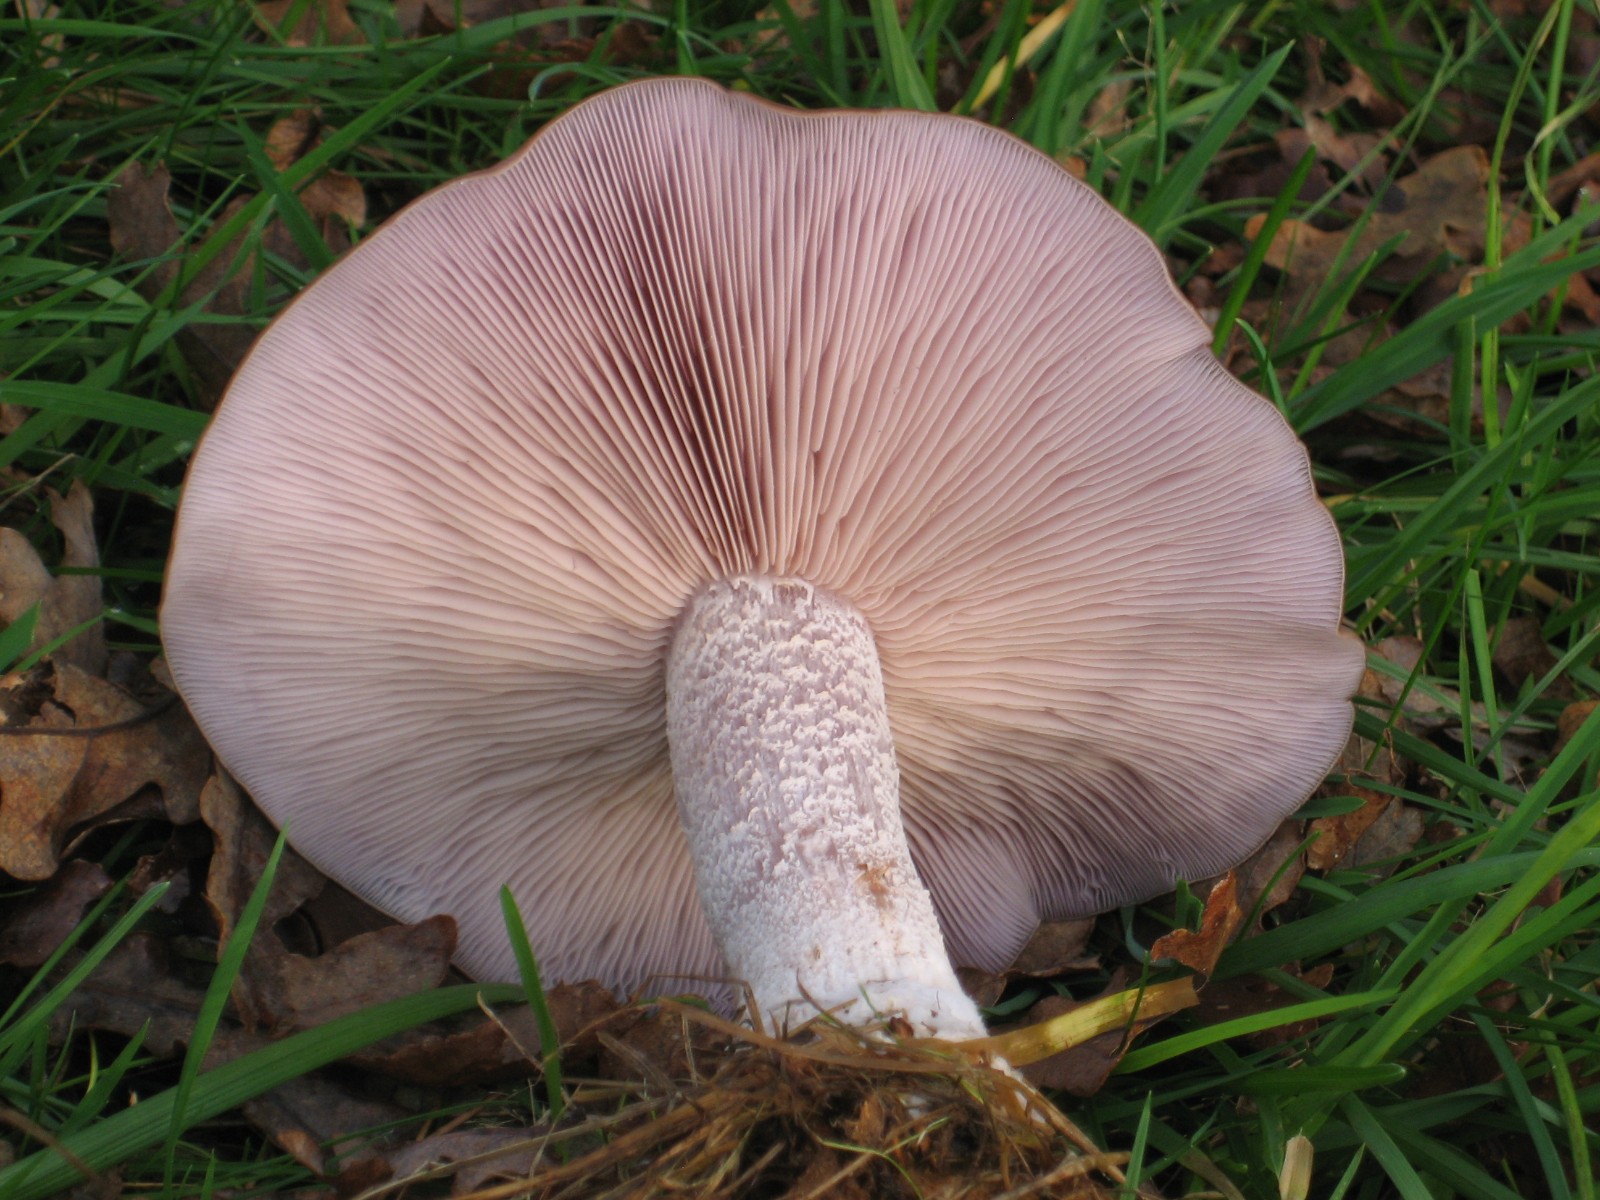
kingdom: Fungi
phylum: Basidiomycota
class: Agaricomycetes
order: Agaricales
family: Tricholomataceae
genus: Lepista
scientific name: Lepista nuda
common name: violet hekseringshat
